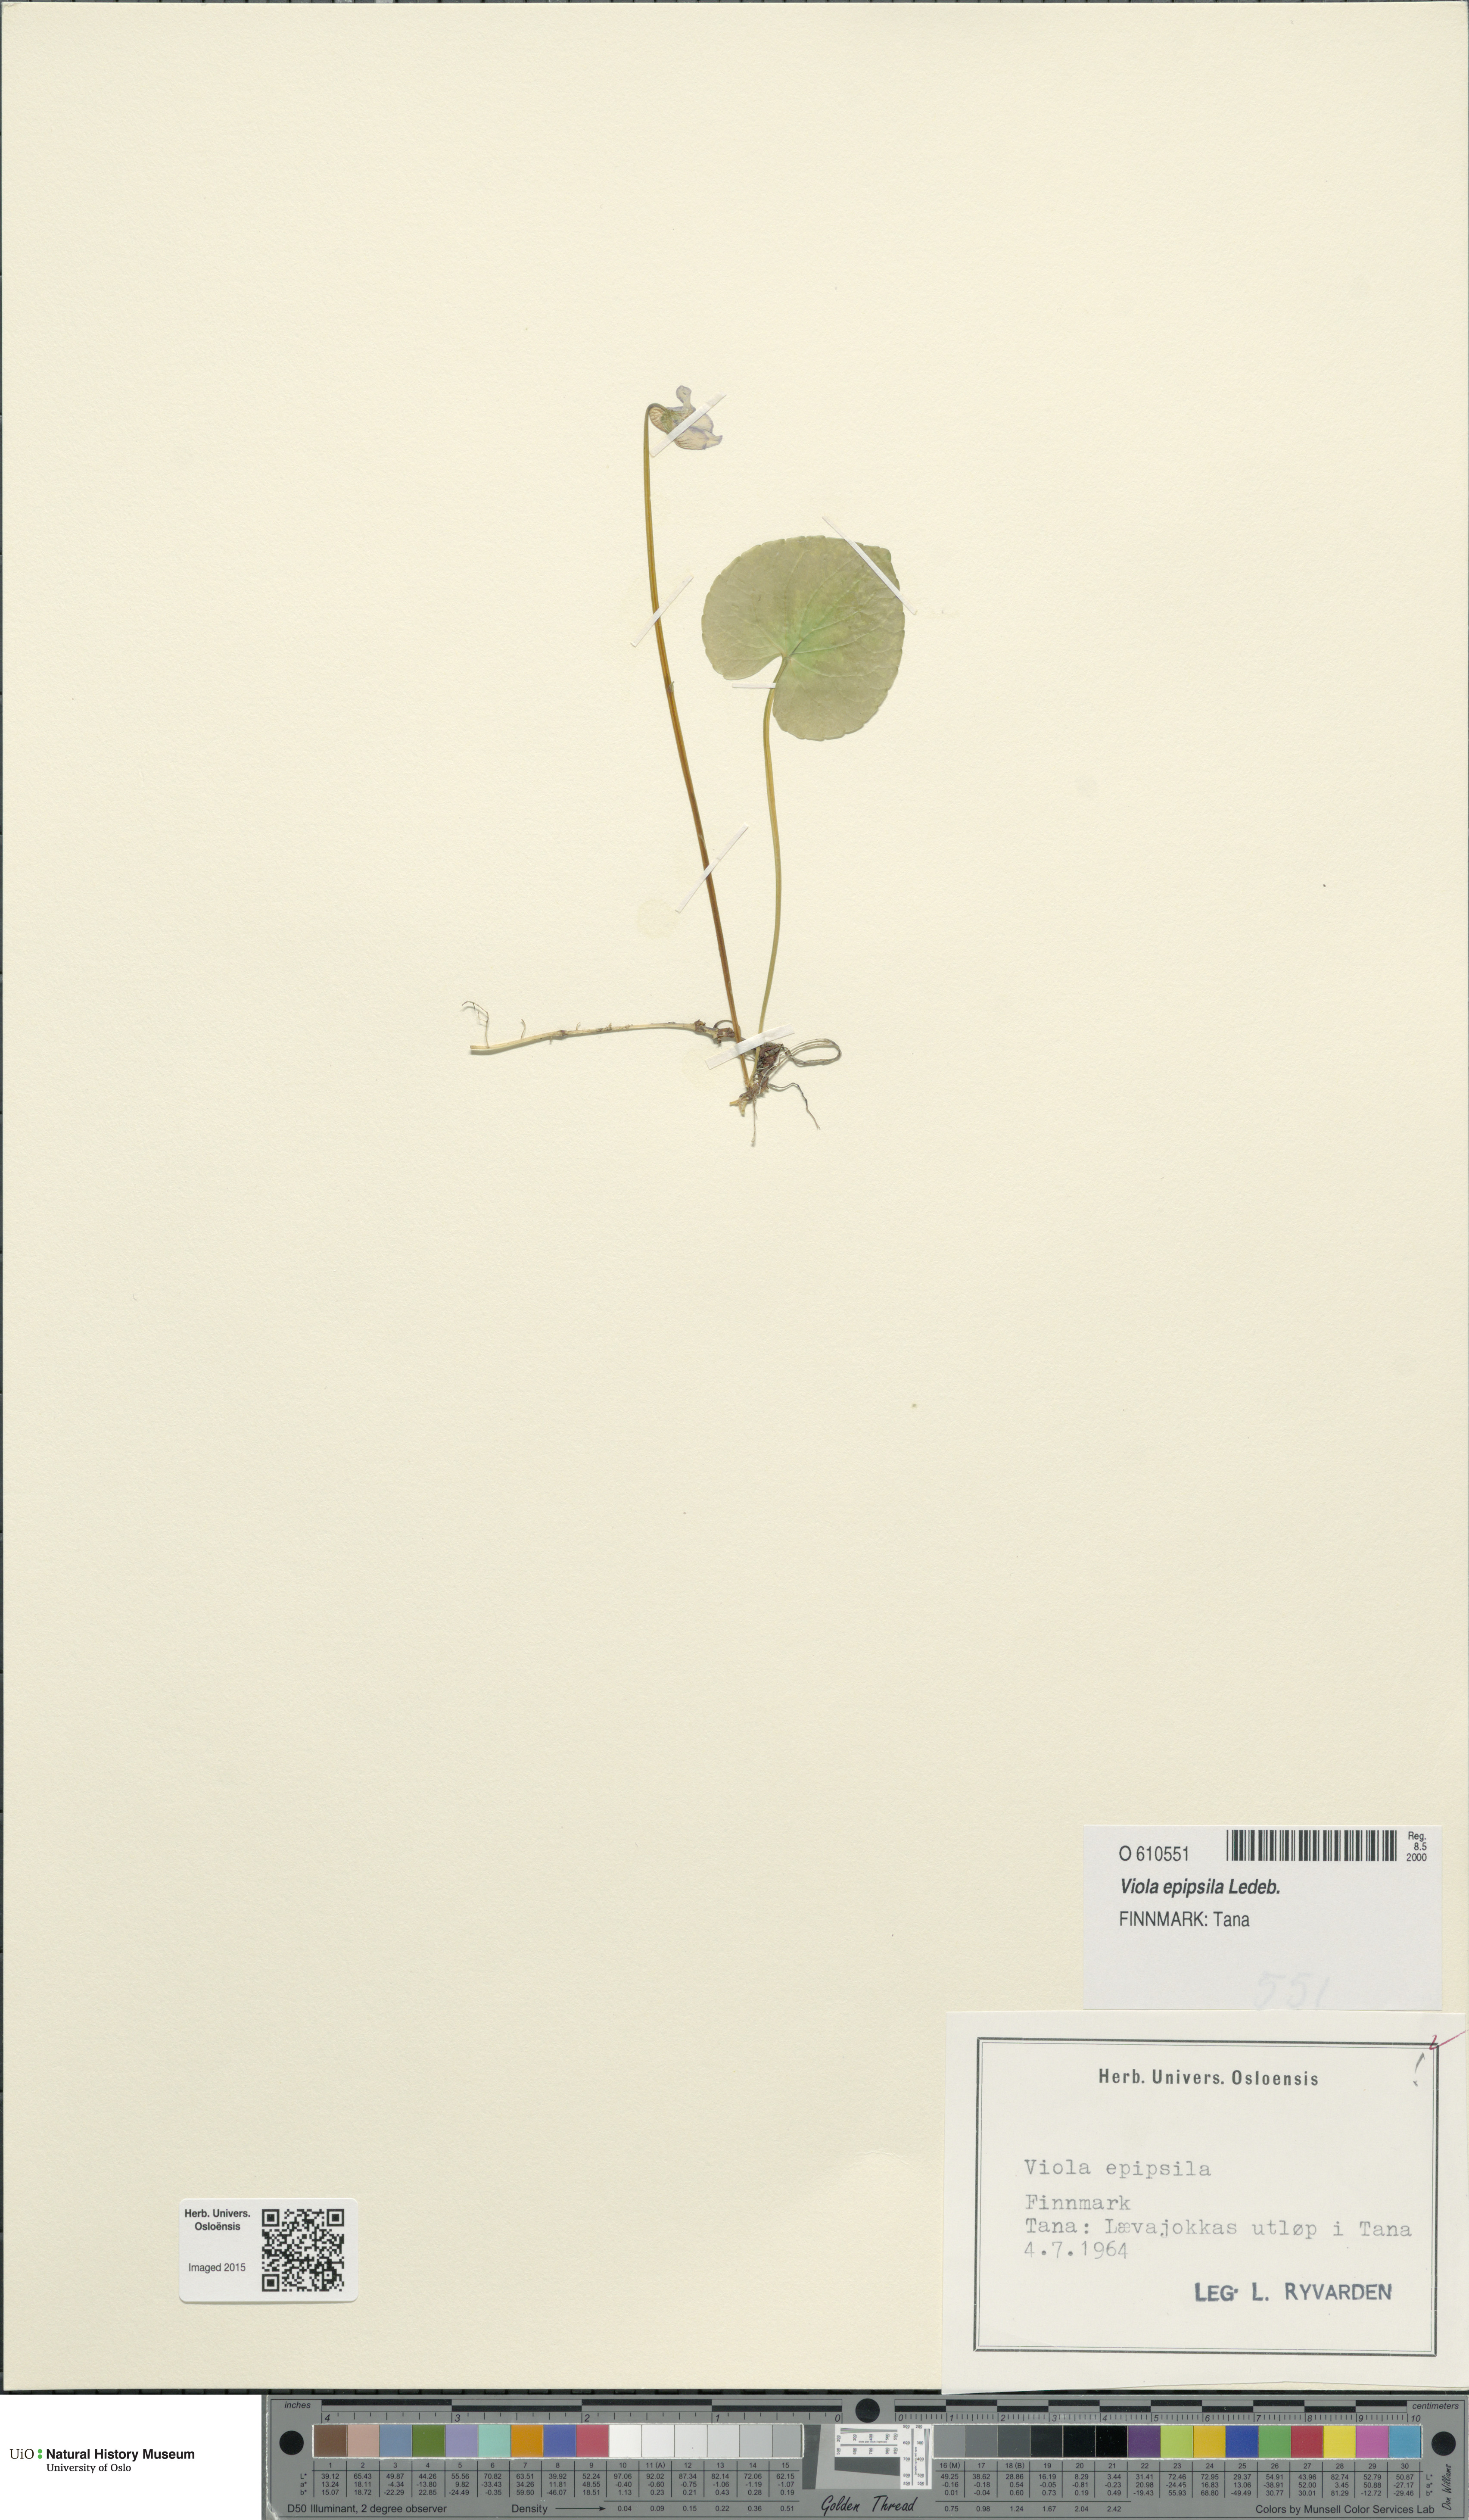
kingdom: Plantae
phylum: Tracheophyta
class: Magnoliopsida
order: Malpighiales
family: Violaceae
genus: Viola
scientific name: Viola epipsila
